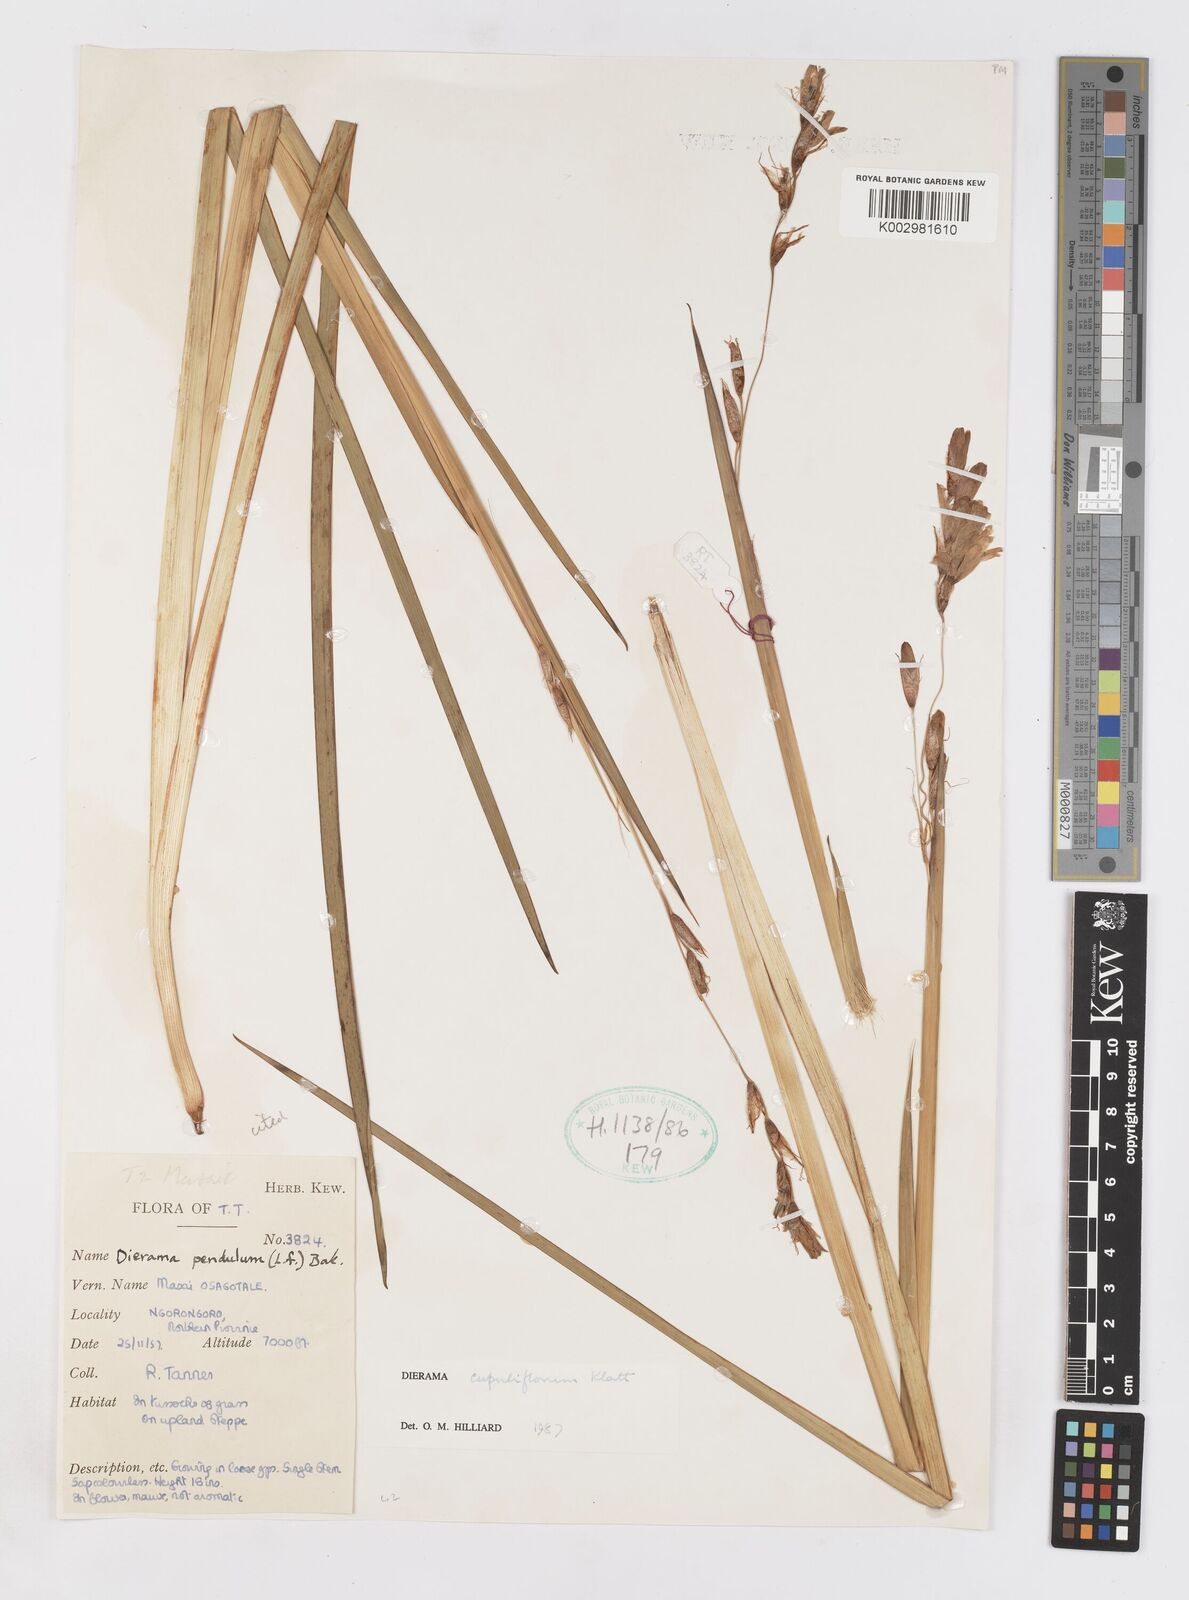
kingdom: Plantae
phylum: Tracheophyta
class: Liliopsida
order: Asparagales
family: Iridaceae
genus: Dierama
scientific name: Dierama cupuliflorum
